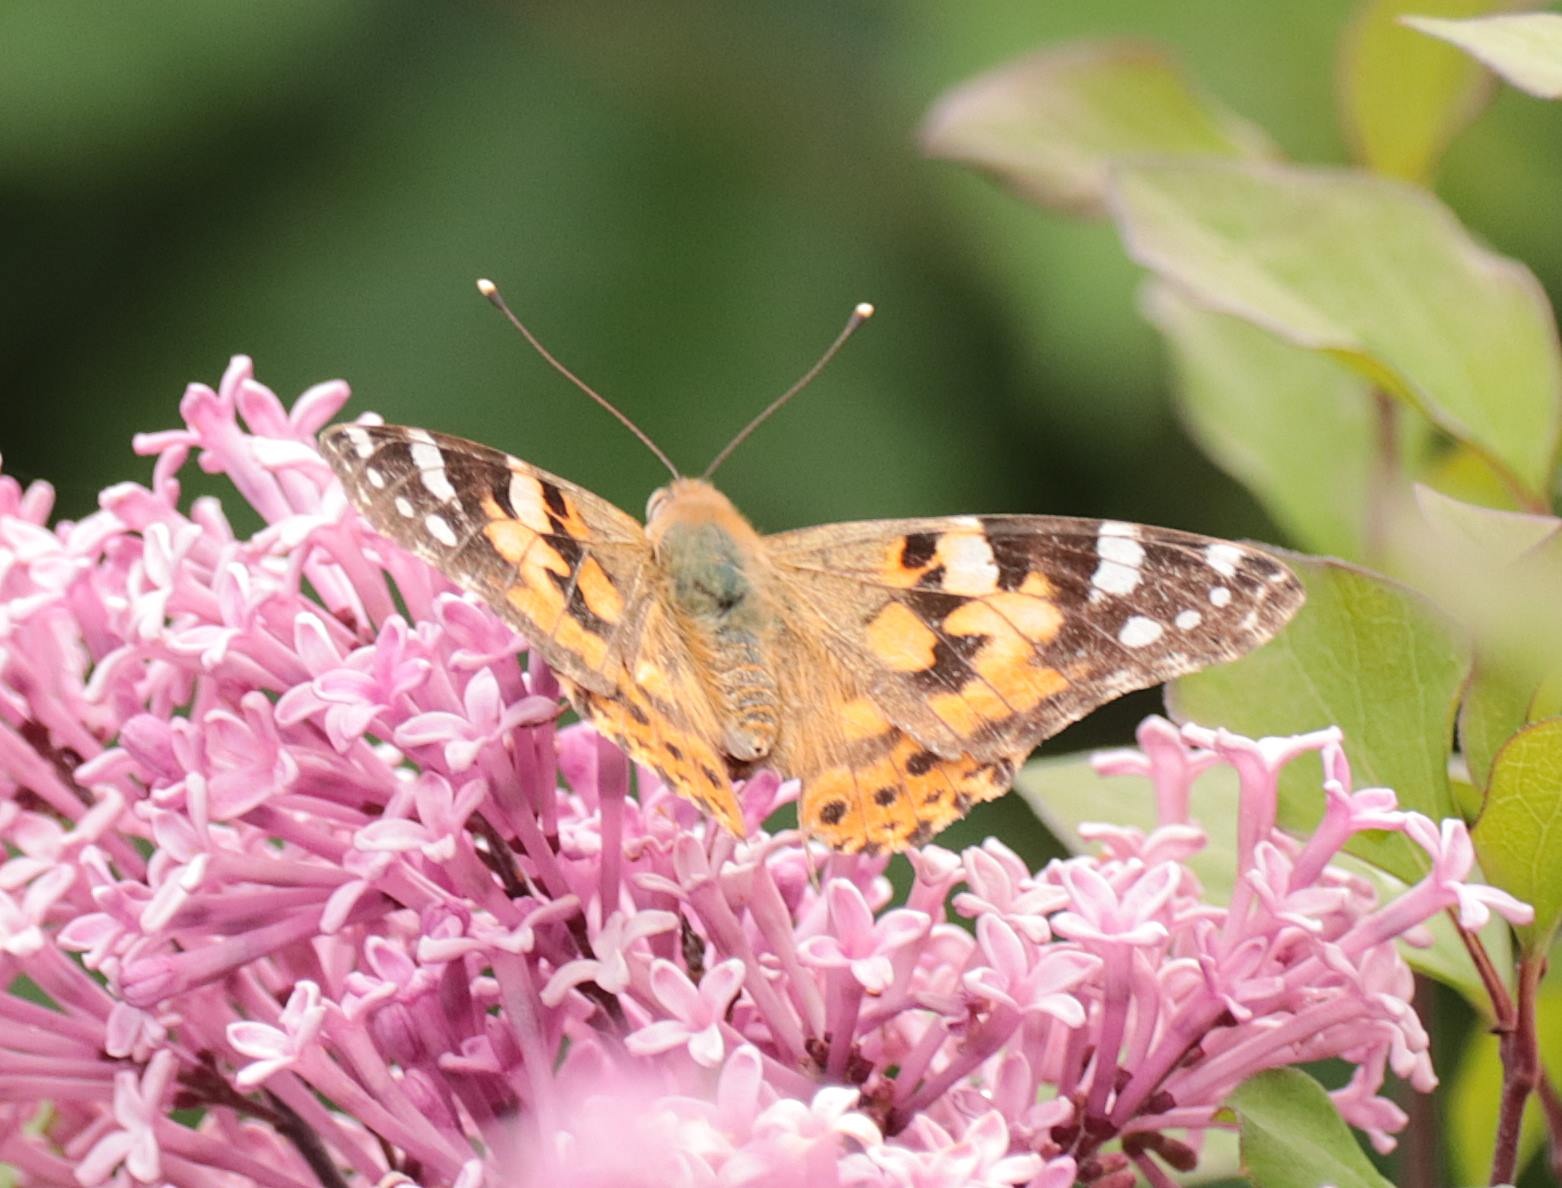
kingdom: Animalia
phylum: Arthropoda
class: Insecta
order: Lepidoptera
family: Nymphalidae
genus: Vanessa
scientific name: Vanessa cardui
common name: Tidselsommerfugl
